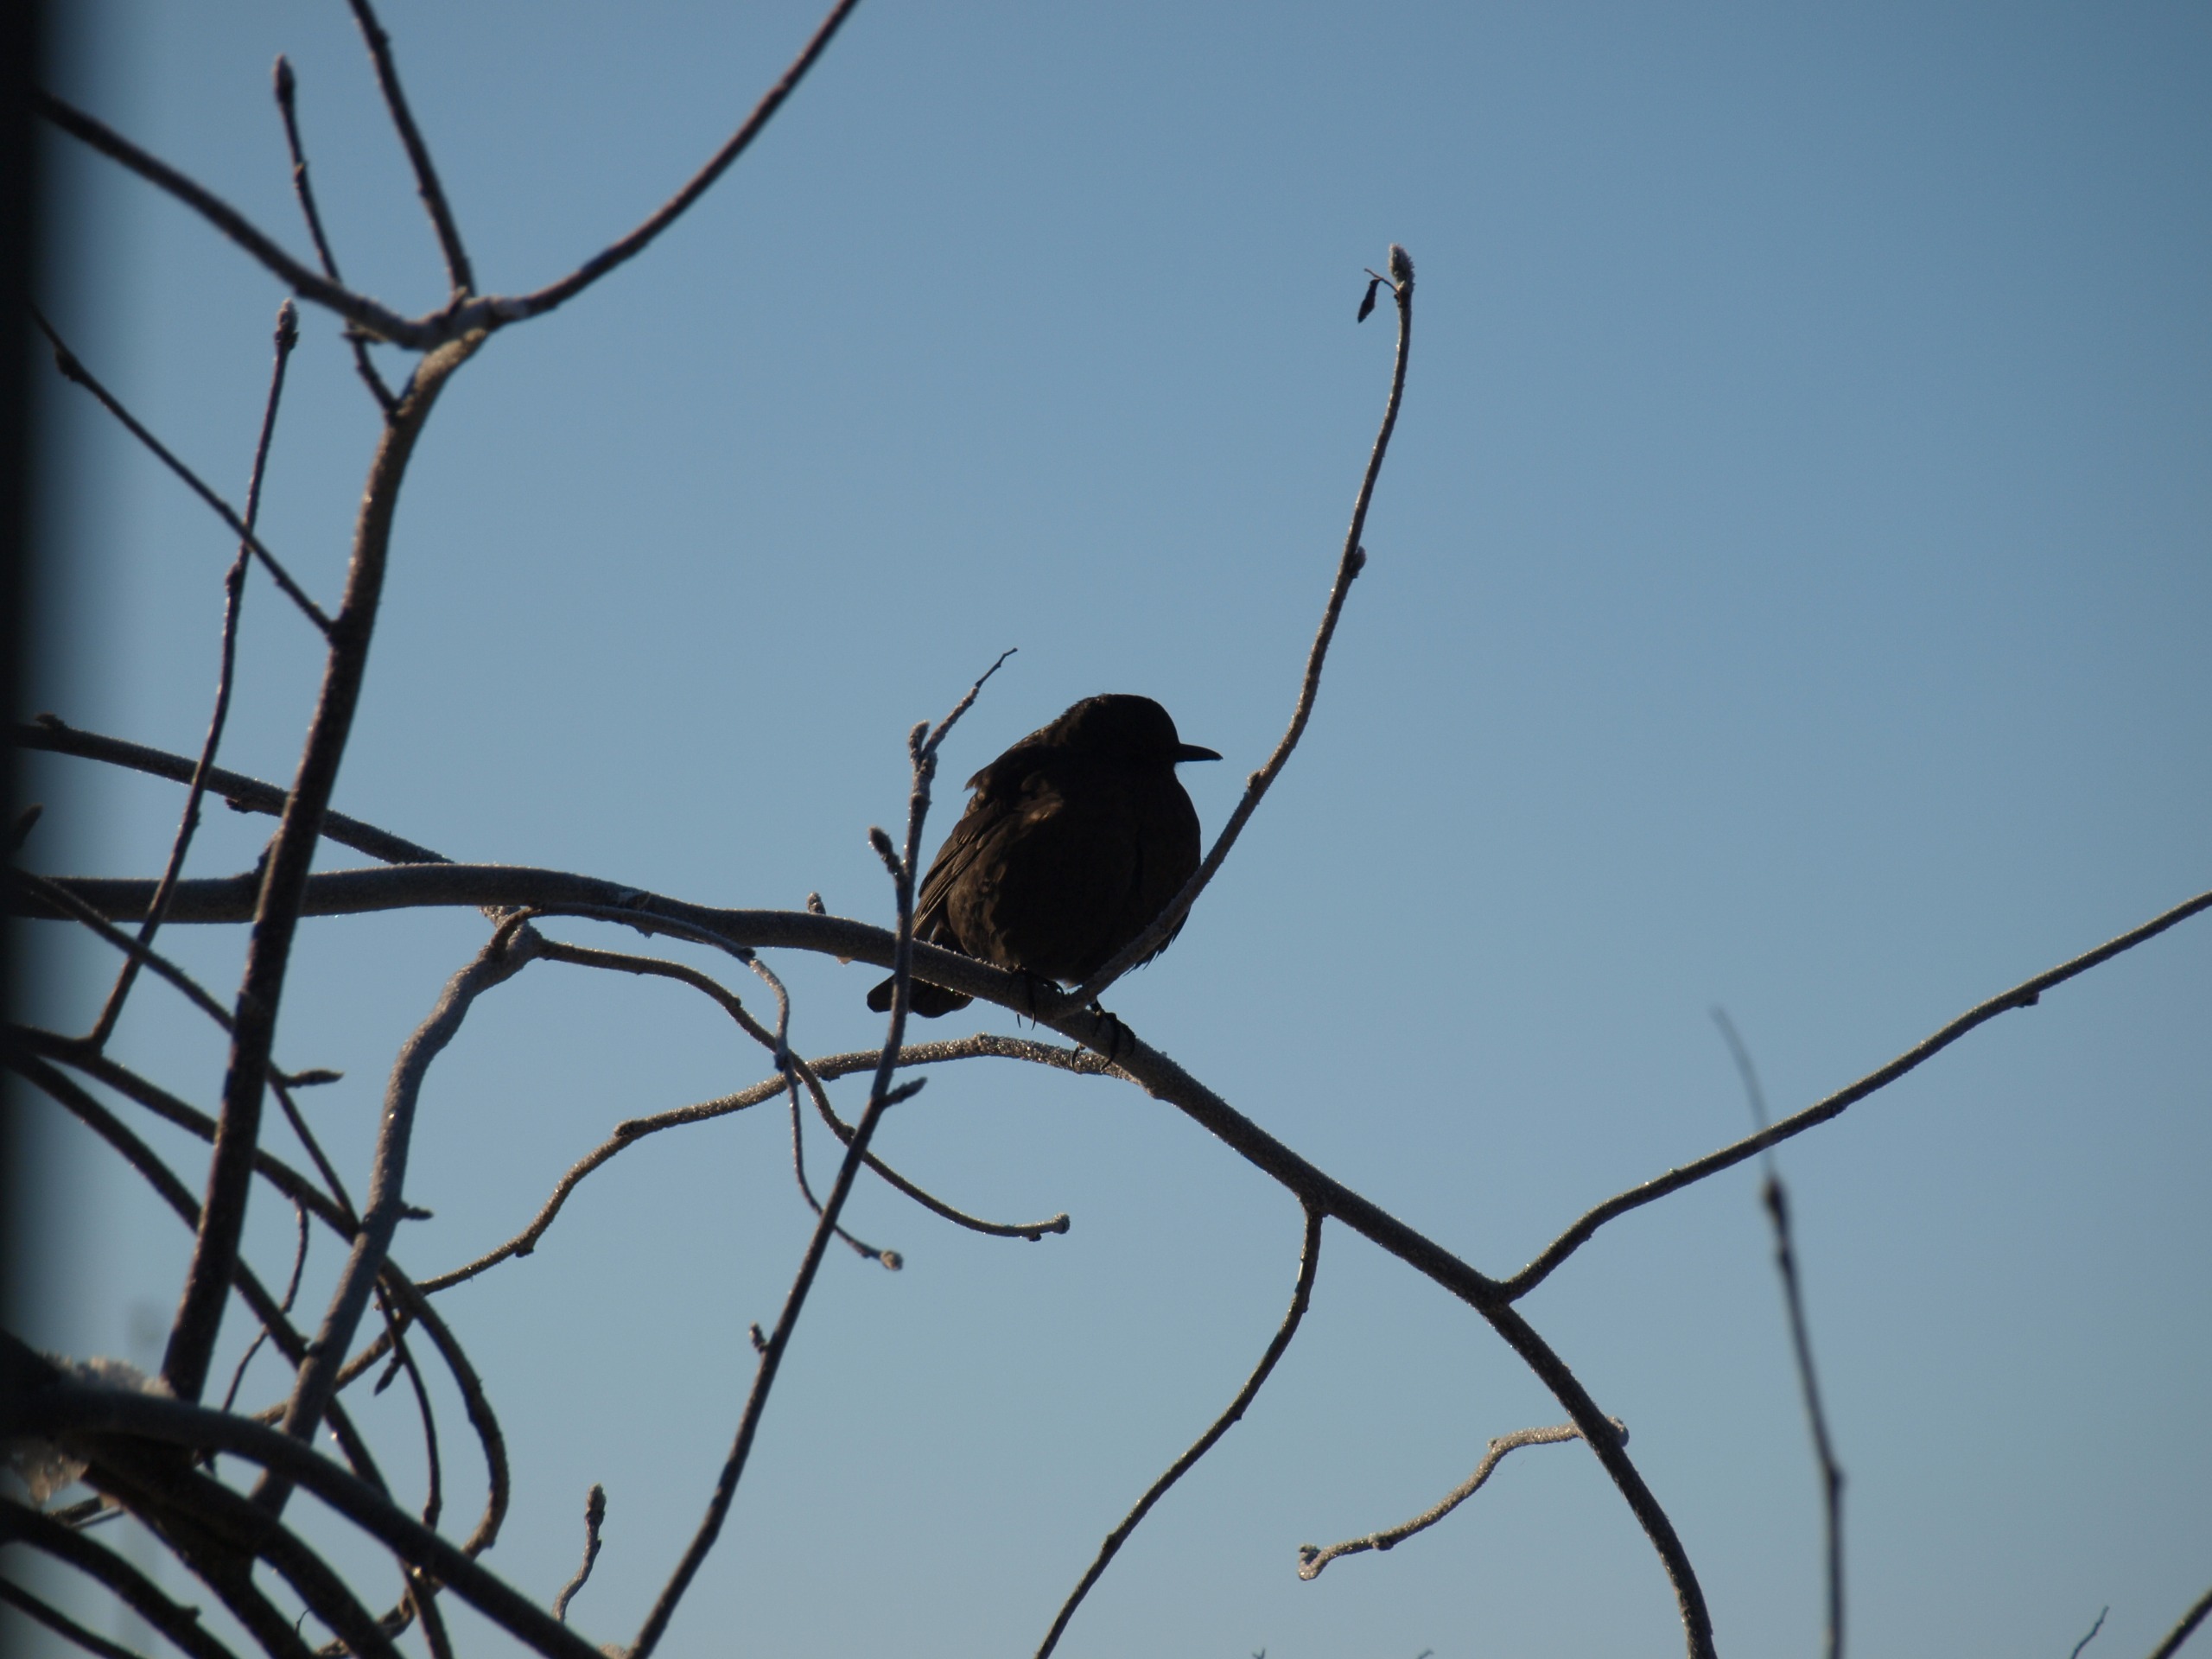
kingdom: Animalia
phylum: Chordata
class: Aves
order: Passeriformes
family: Turdidae
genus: Turdus
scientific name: Turdus merula
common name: Solsort
